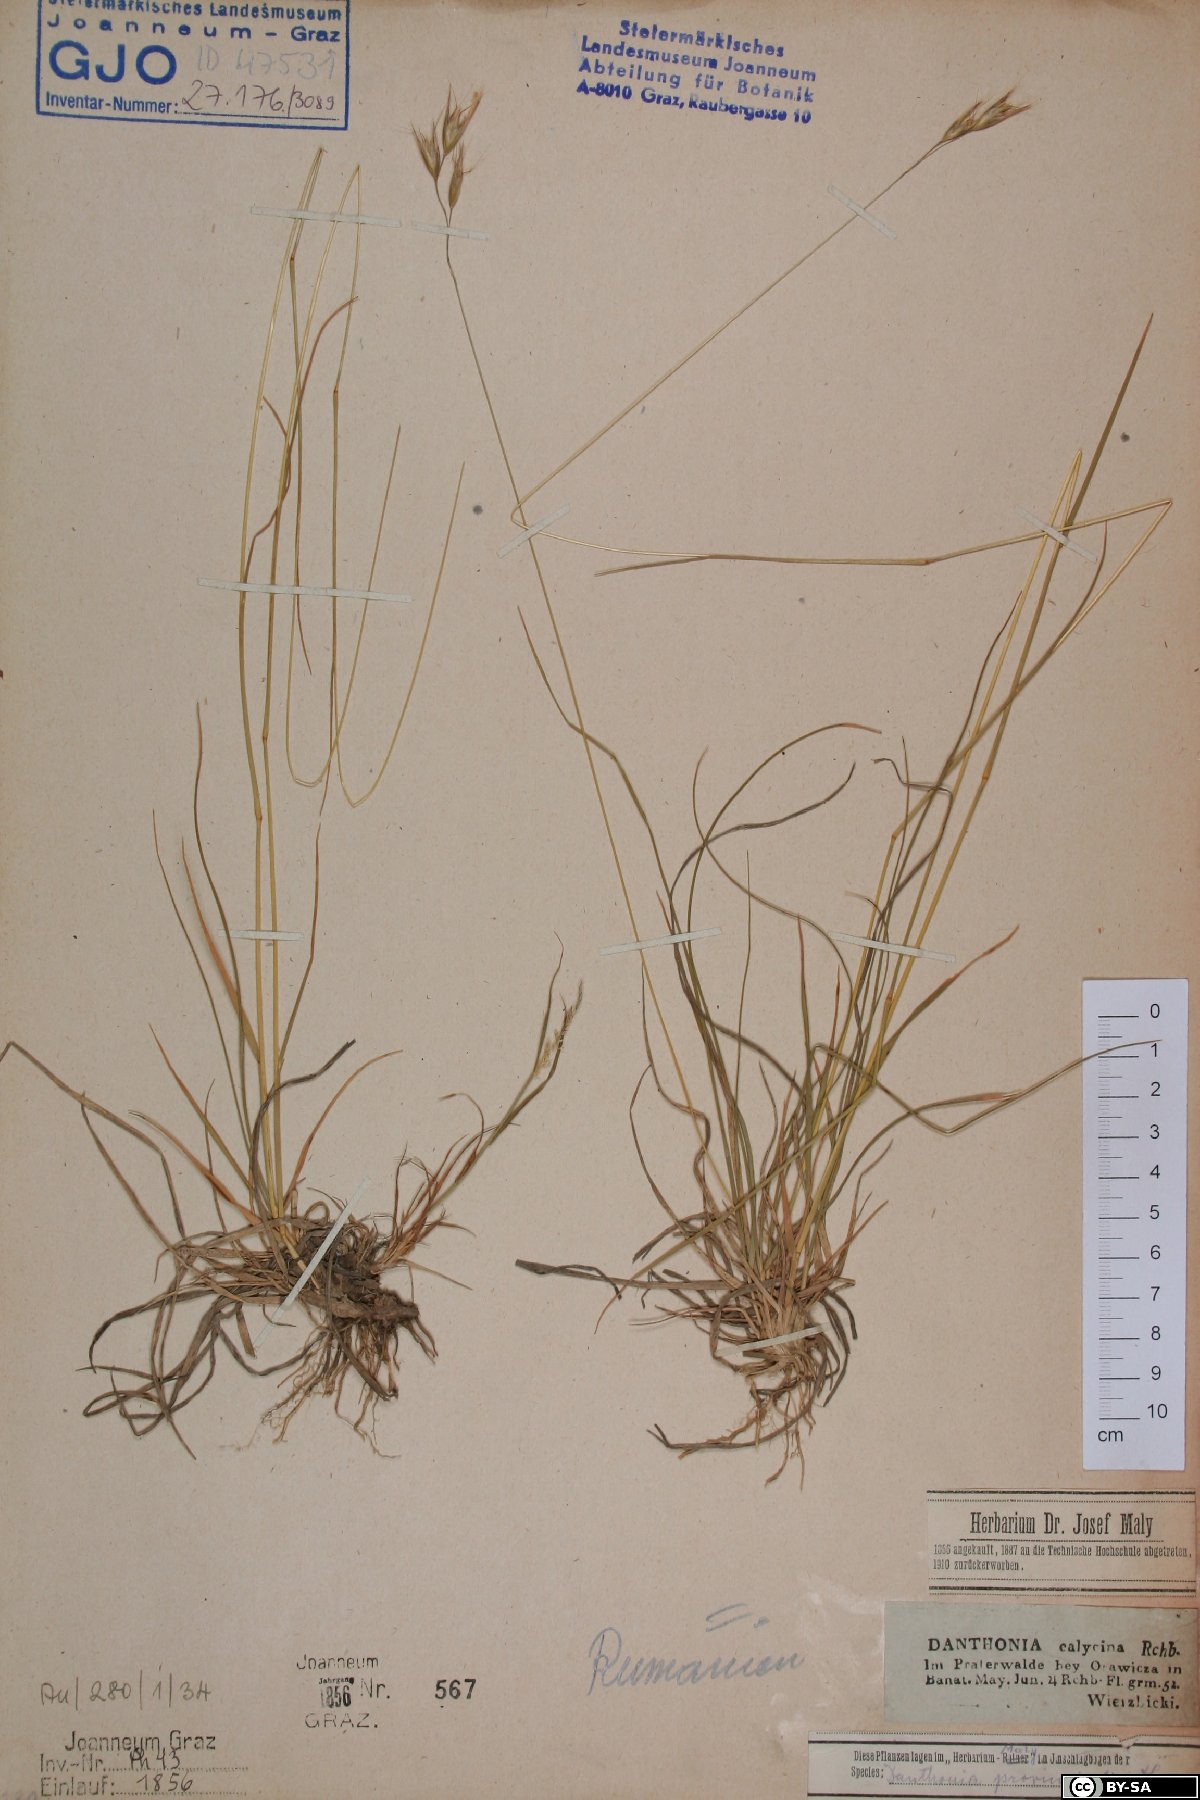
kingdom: Plantae
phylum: Tracheophyta
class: Liliopsida
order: Poales
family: Poaceae
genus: Danthonia
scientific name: Danthonia alpina
